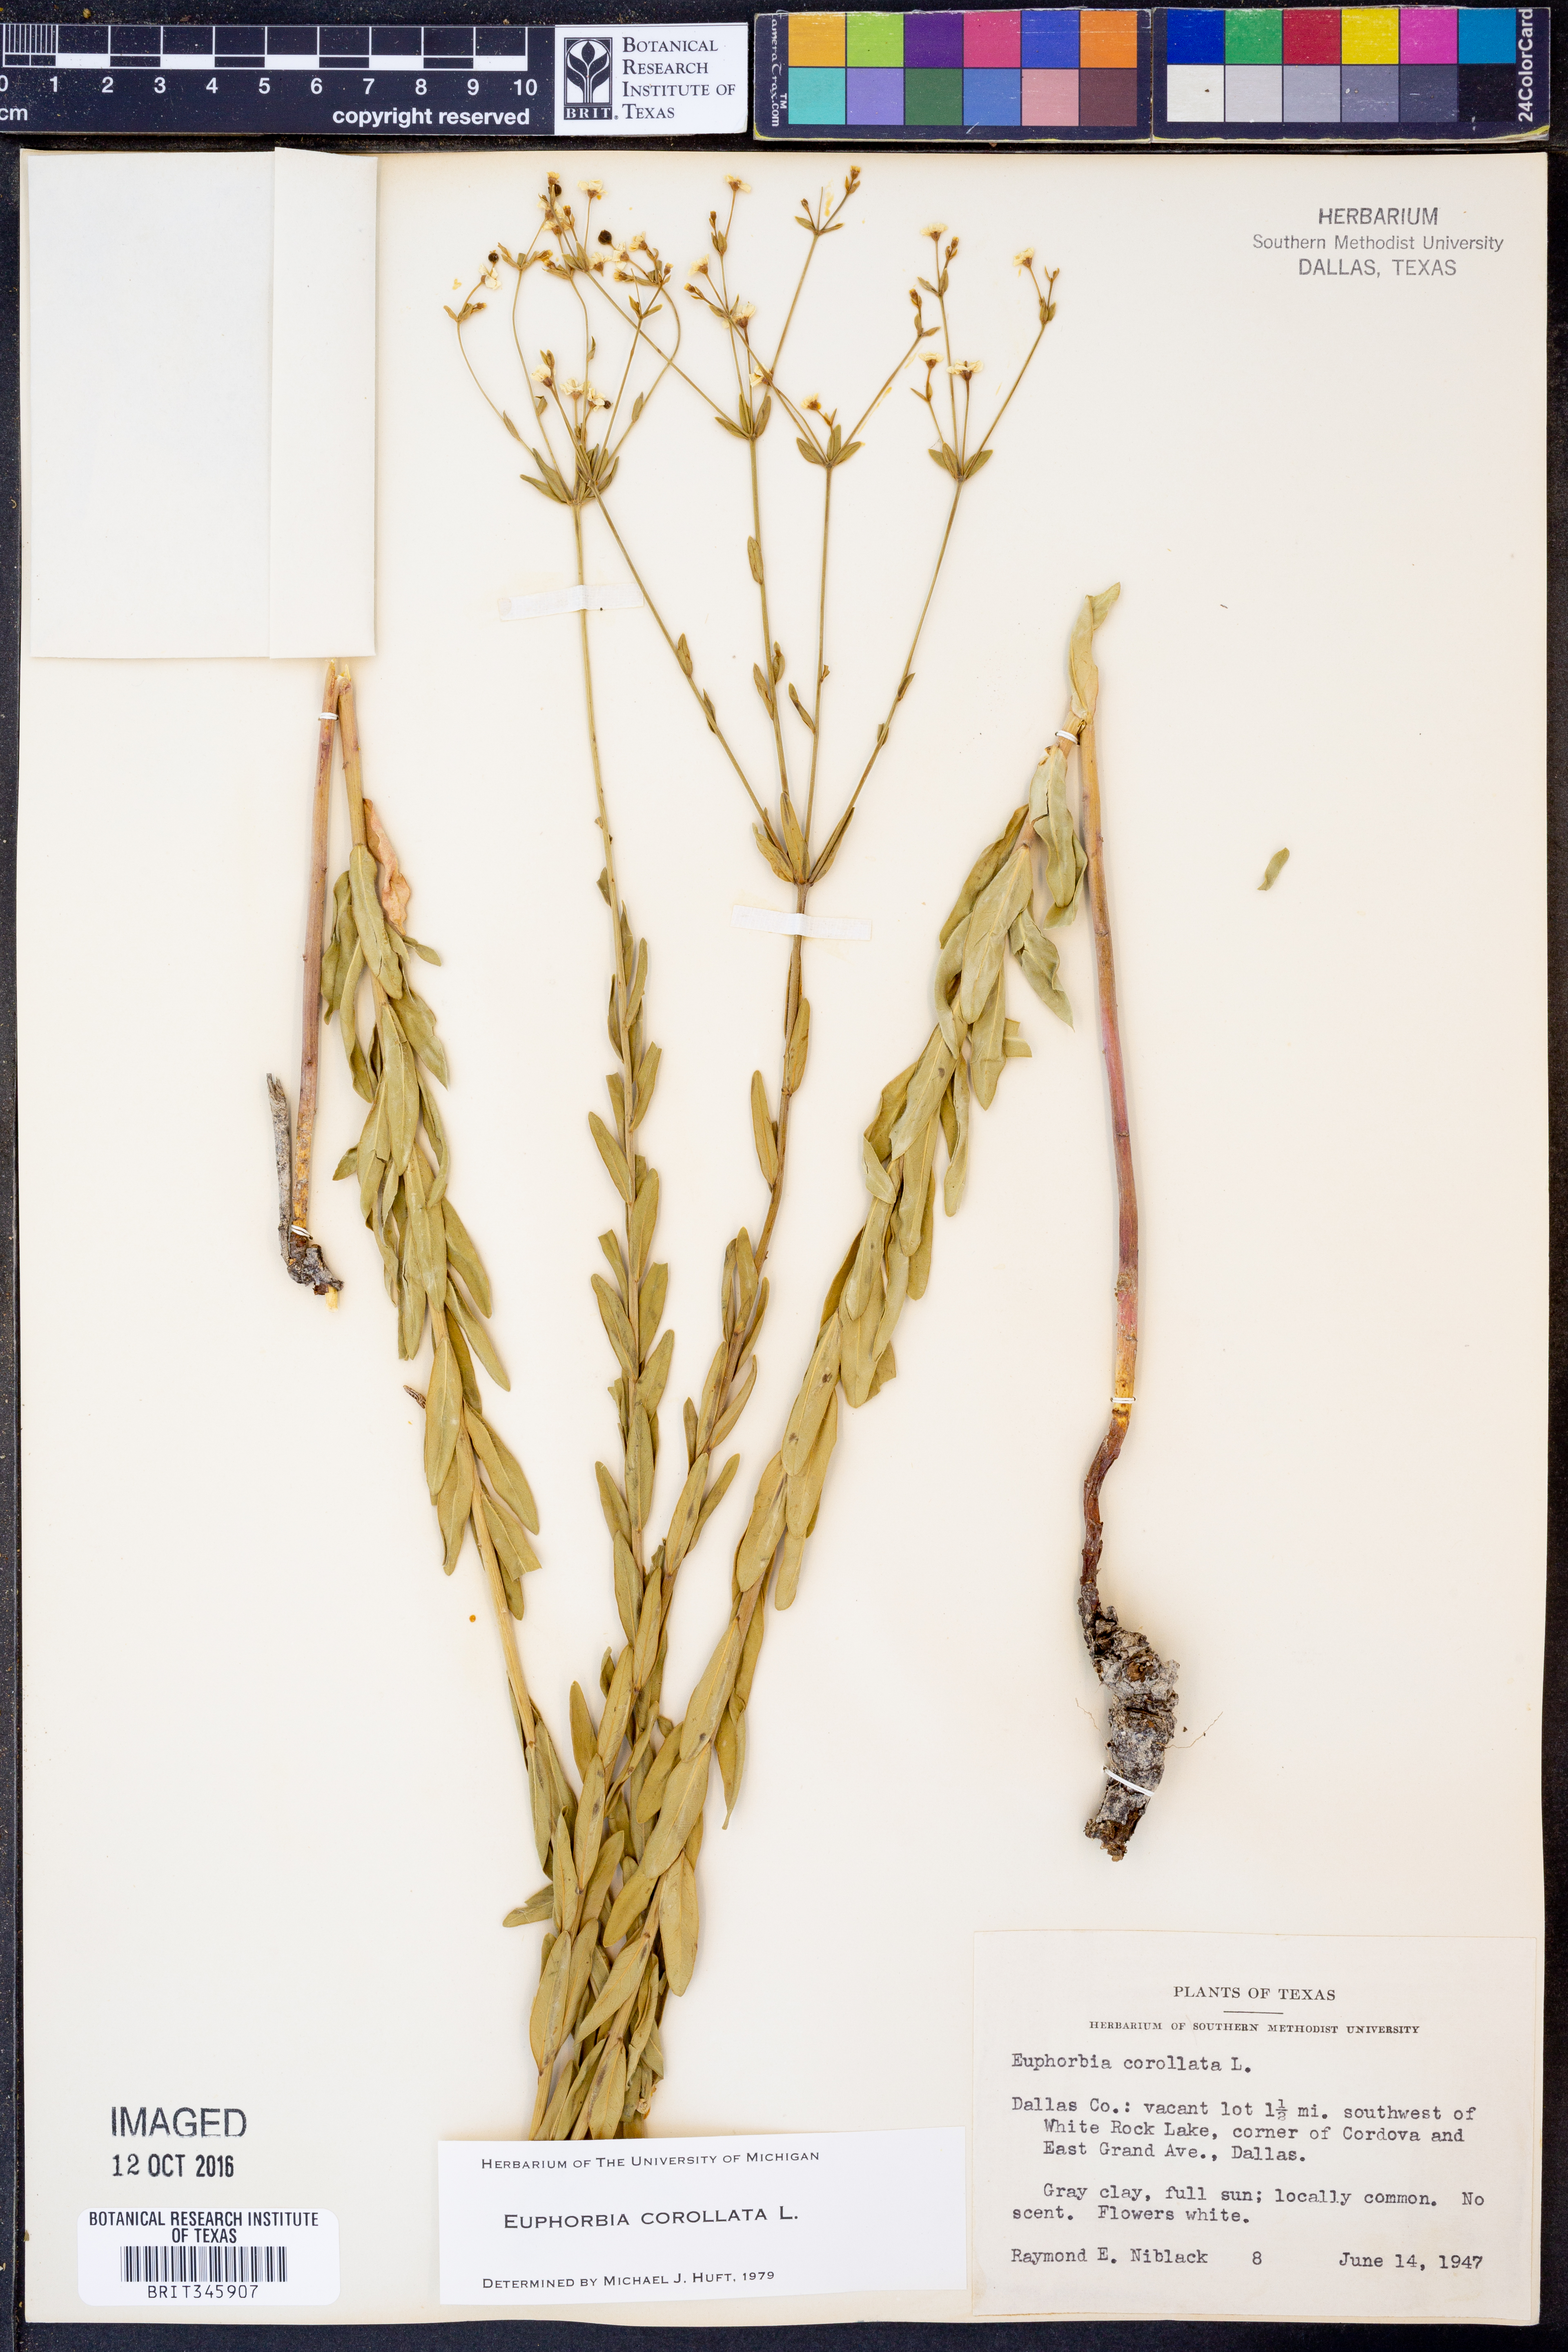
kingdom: Plantae
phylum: Tracheophyta
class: Magnoliopsida
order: Malpighiales
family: Euphorbiaceae
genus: Euphorbia
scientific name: Euphorbia corollata
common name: Flowering spurge
